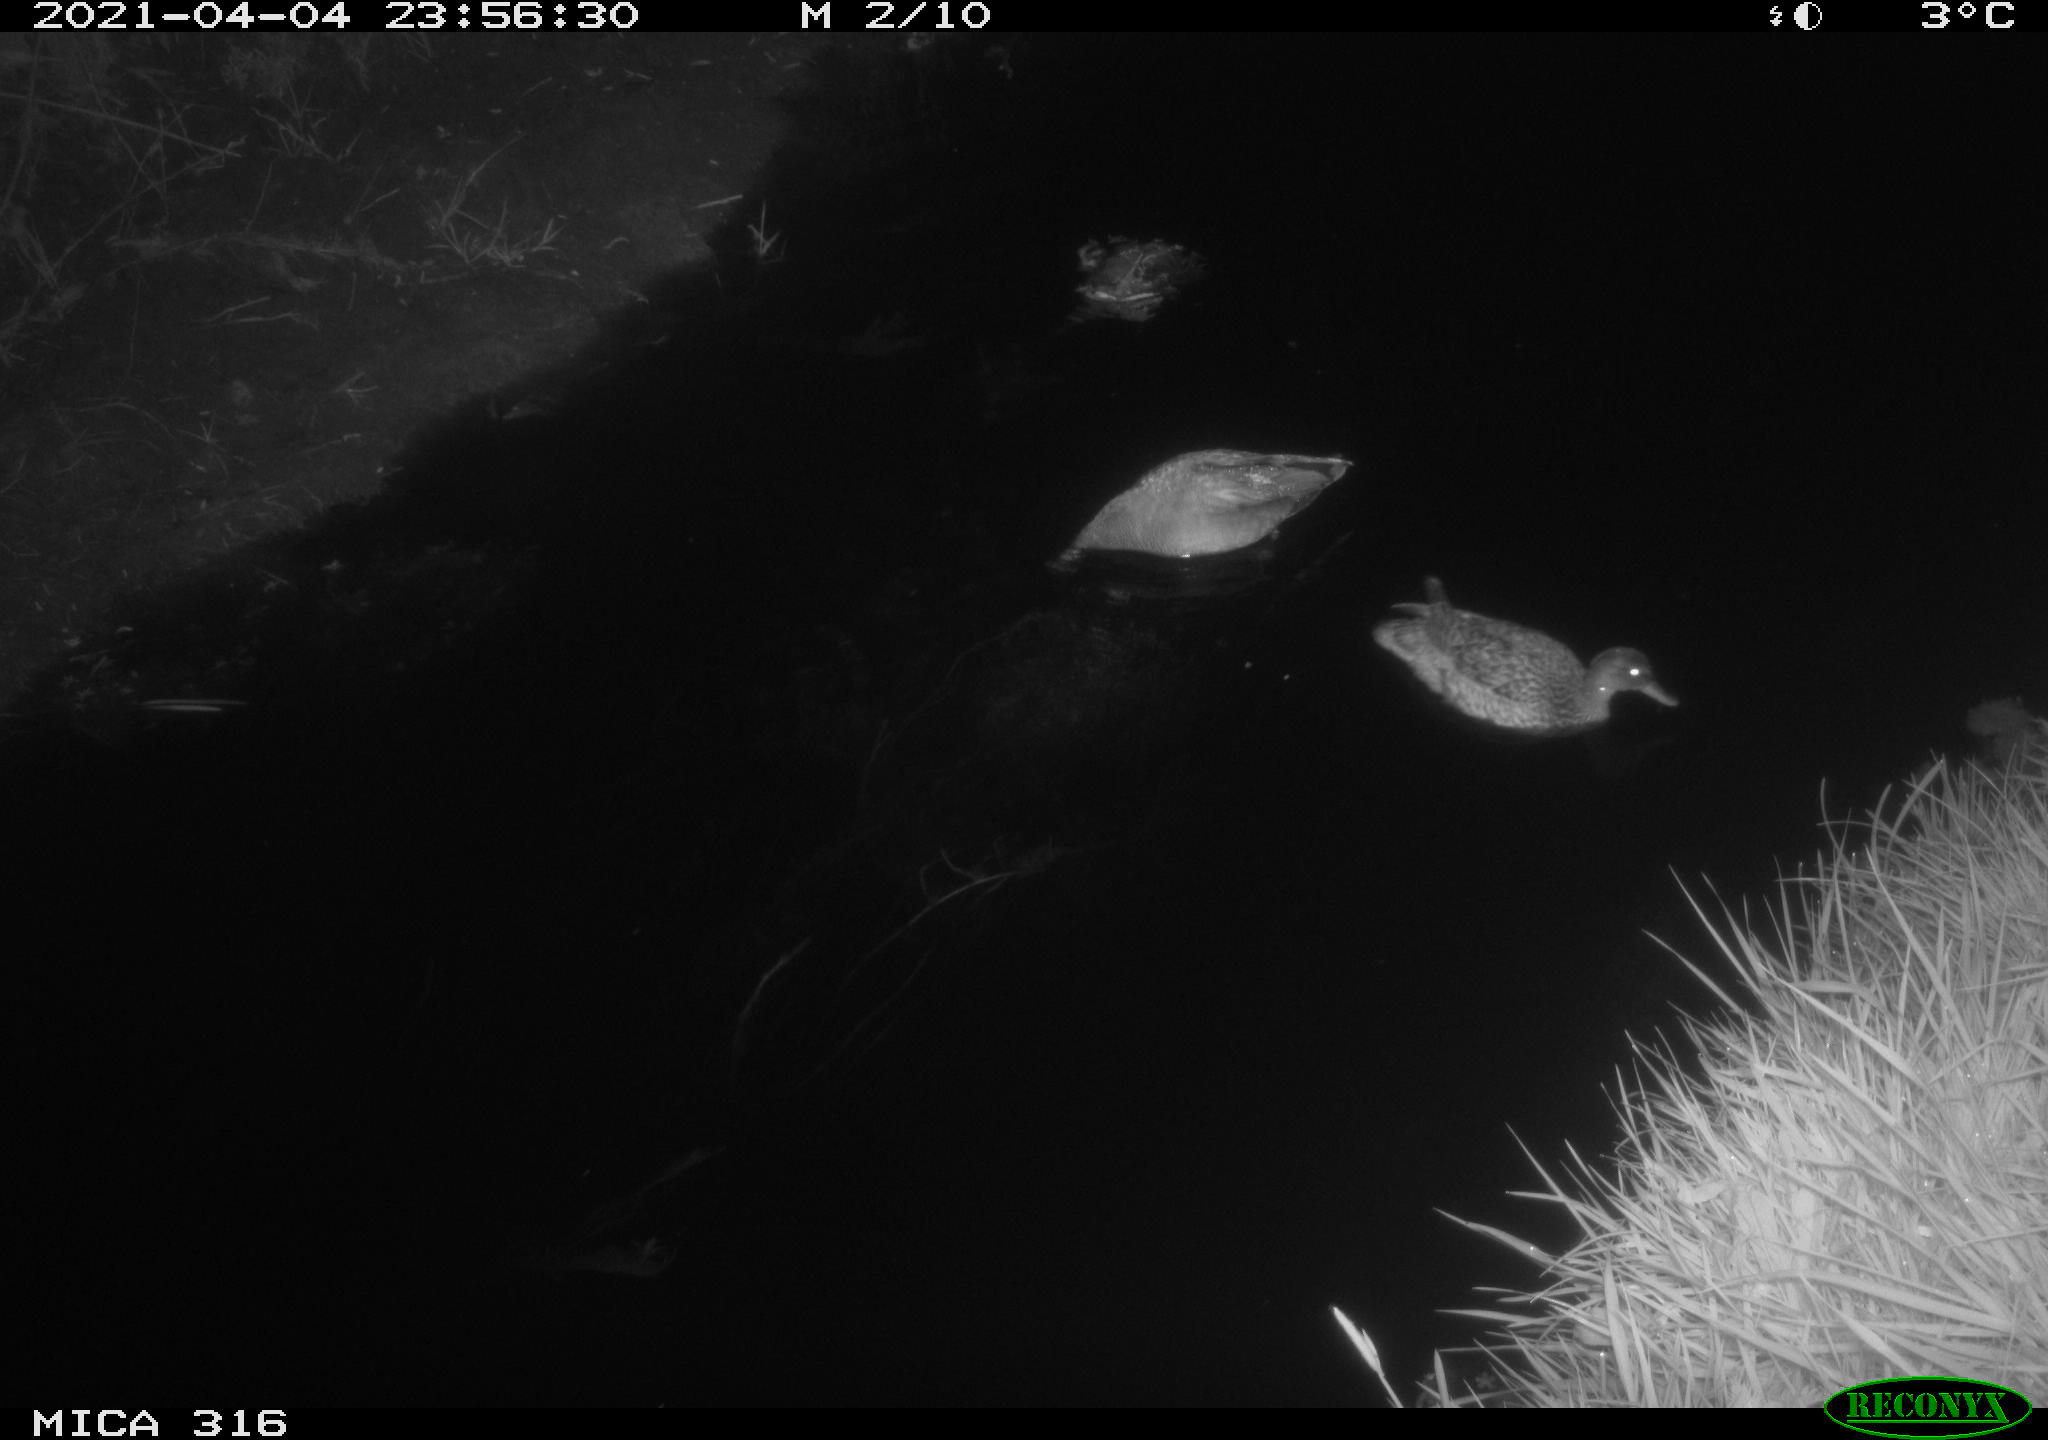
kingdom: Animalia
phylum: Chordata
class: Aves
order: Anseriformes
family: Anatidae
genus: Mareca
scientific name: Mareca strepera
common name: Gadwall
